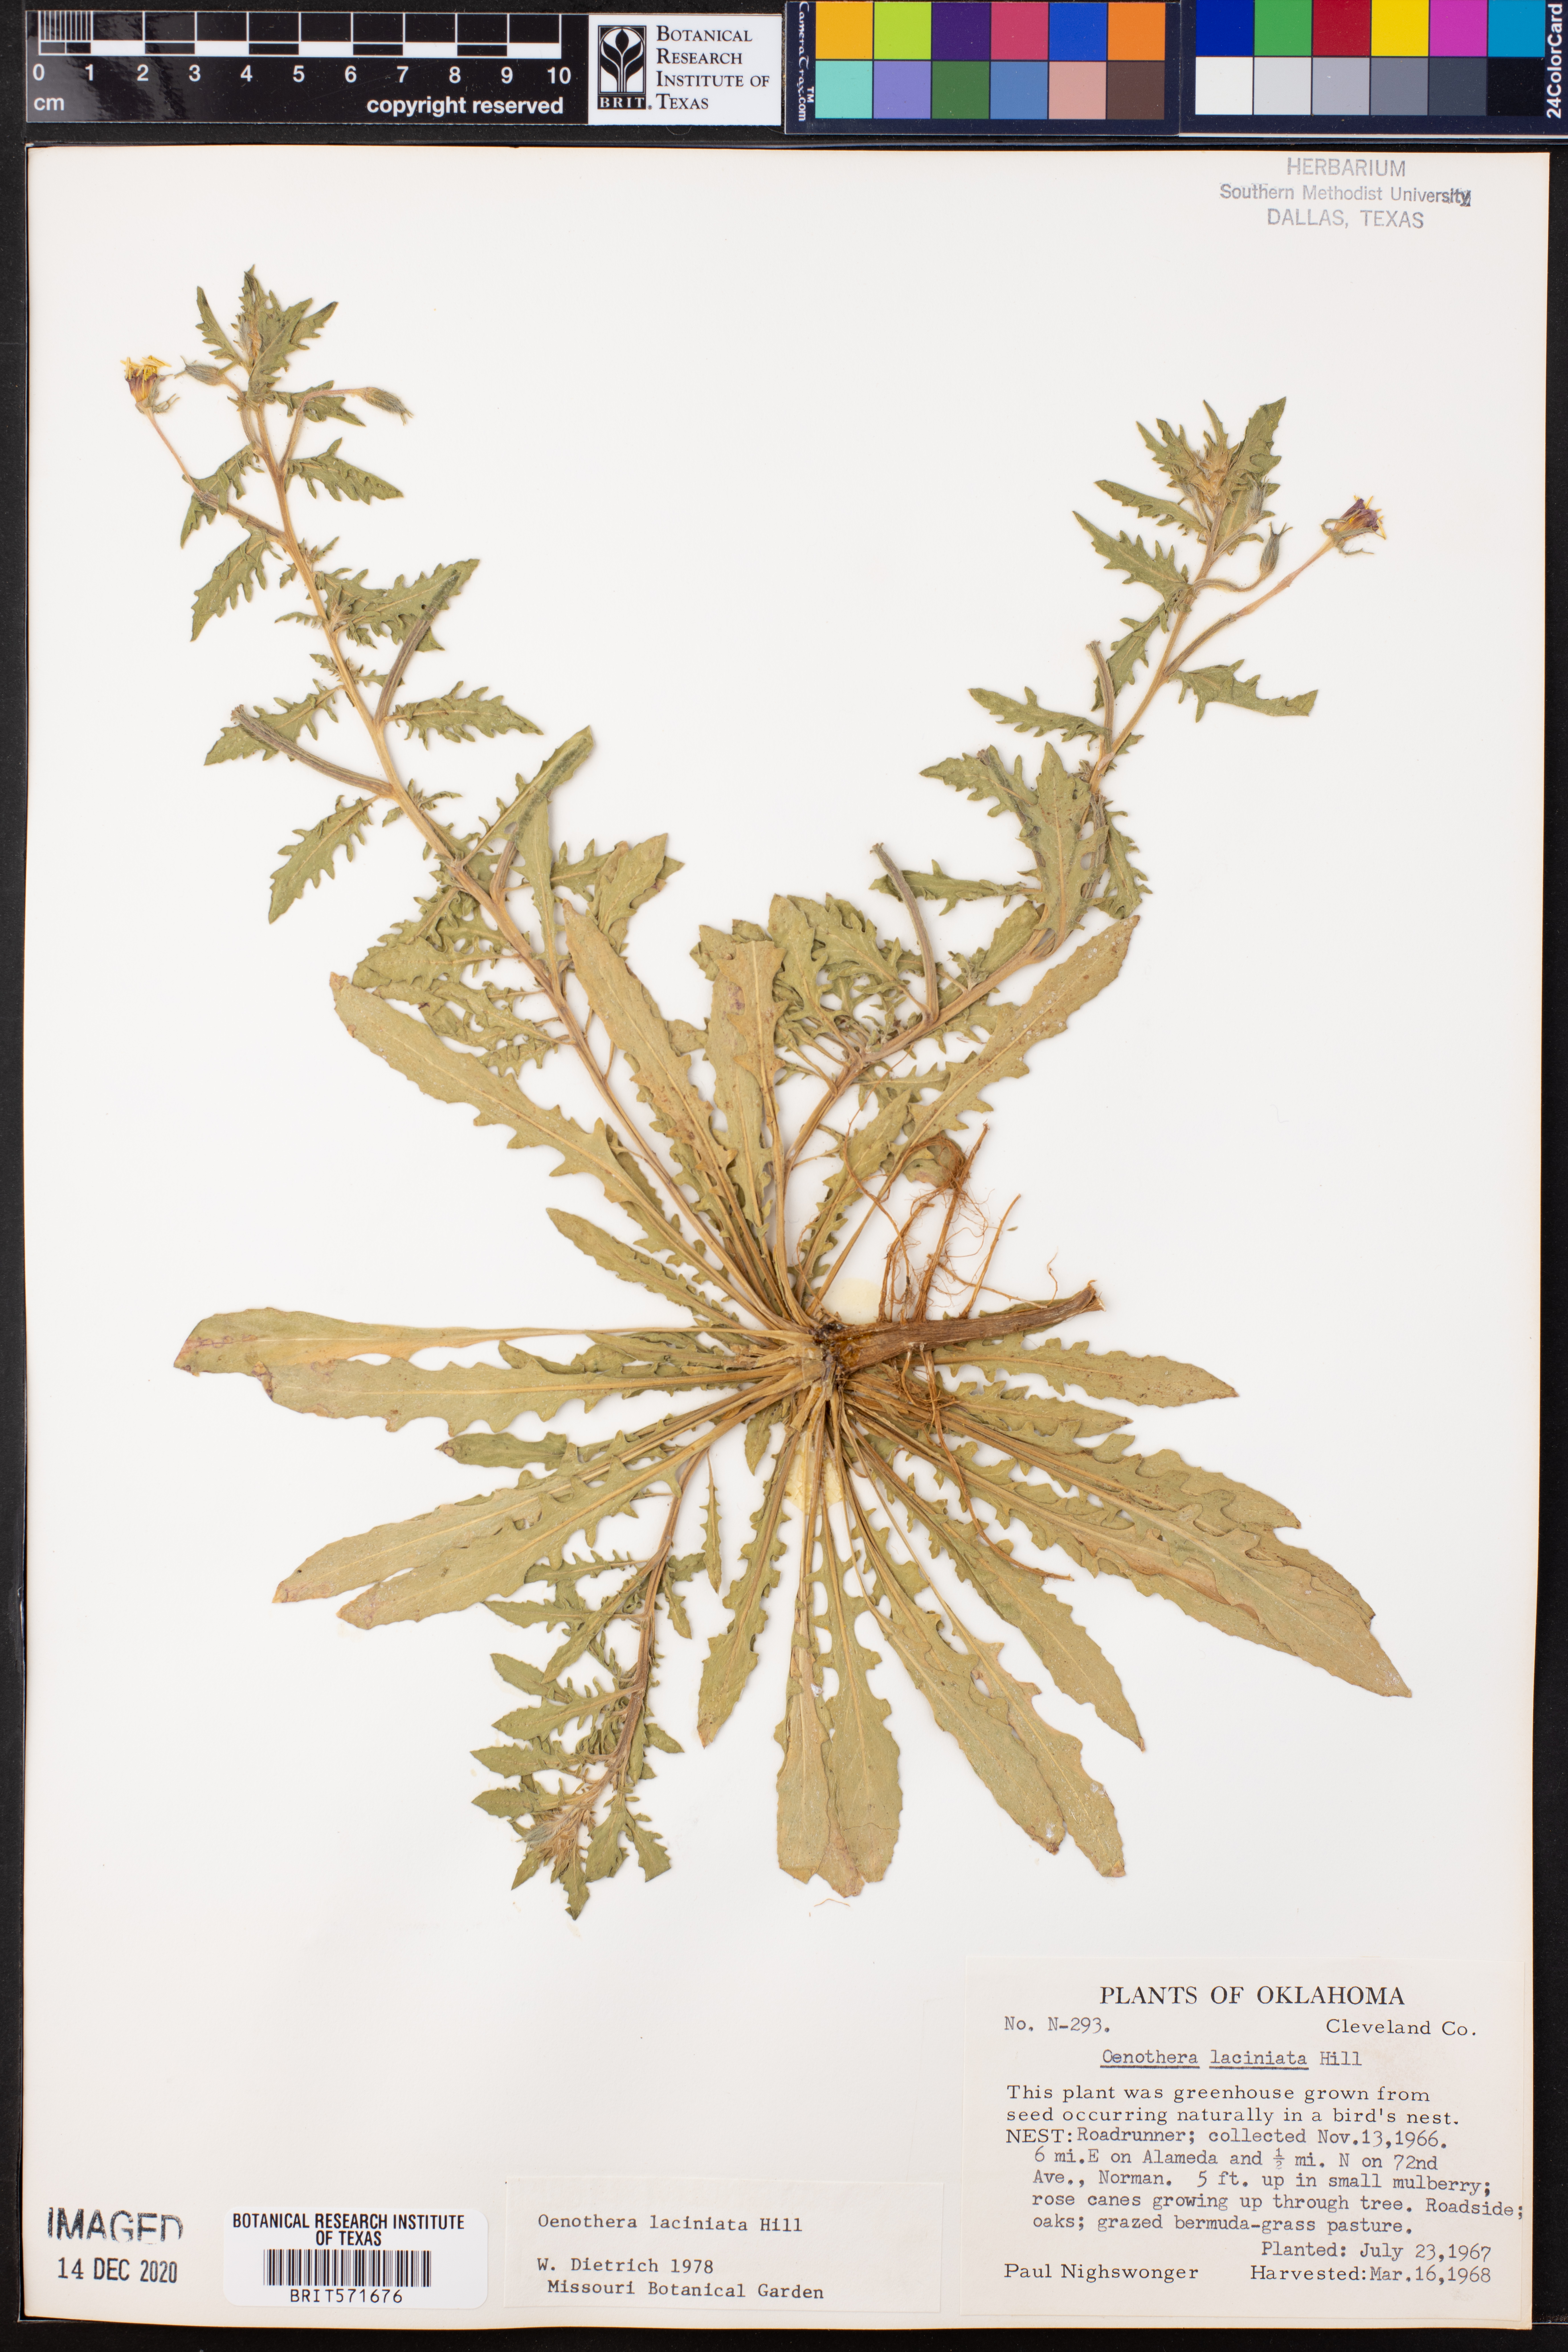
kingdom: Plantae
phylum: Tracheophyta
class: Magnoliopsida
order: Myrtales
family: Onagraceae
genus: Oenothera
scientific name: Oenothera laciniata
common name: Cut-leaved evening-primrose
